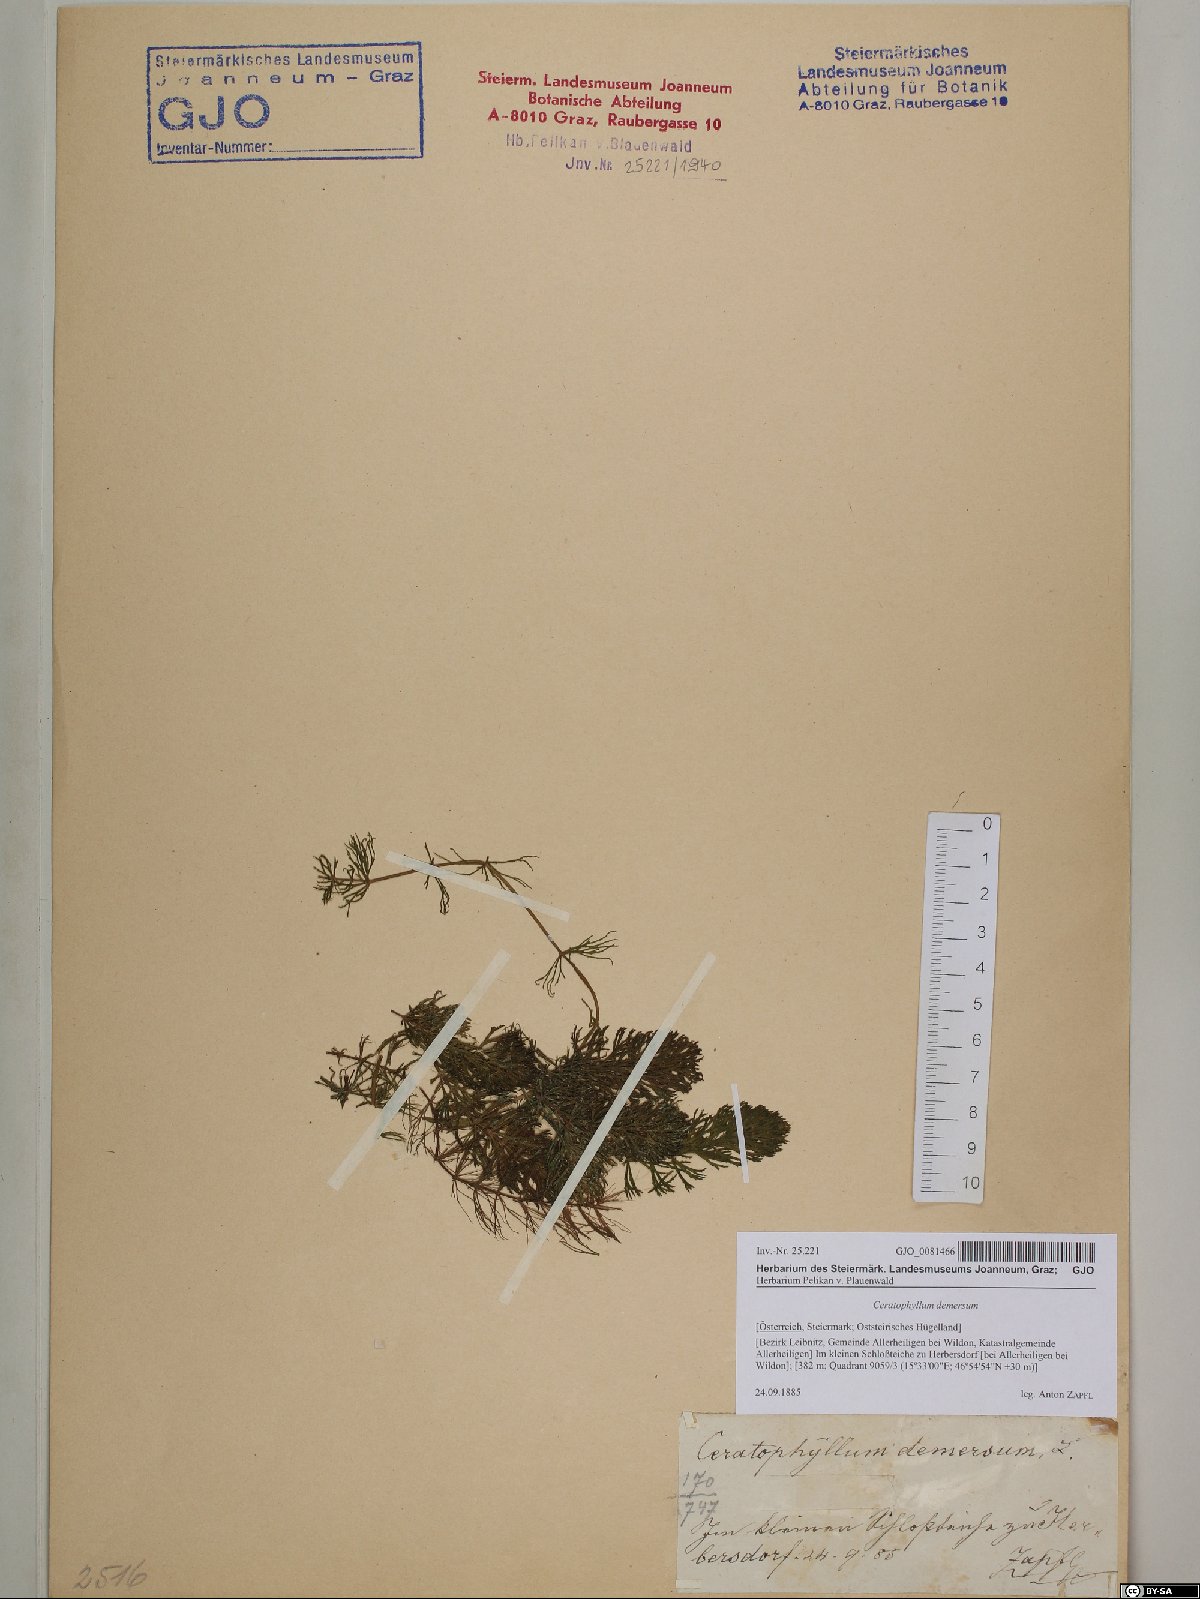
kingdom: Plantae
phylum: Tracheophyta
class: Magnoliopsida
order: Ceratophyllales
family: Ceratophyllaceae
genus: Ceratophyllum
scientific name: Ceratophyllum demersum
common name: Rigid hornwort
